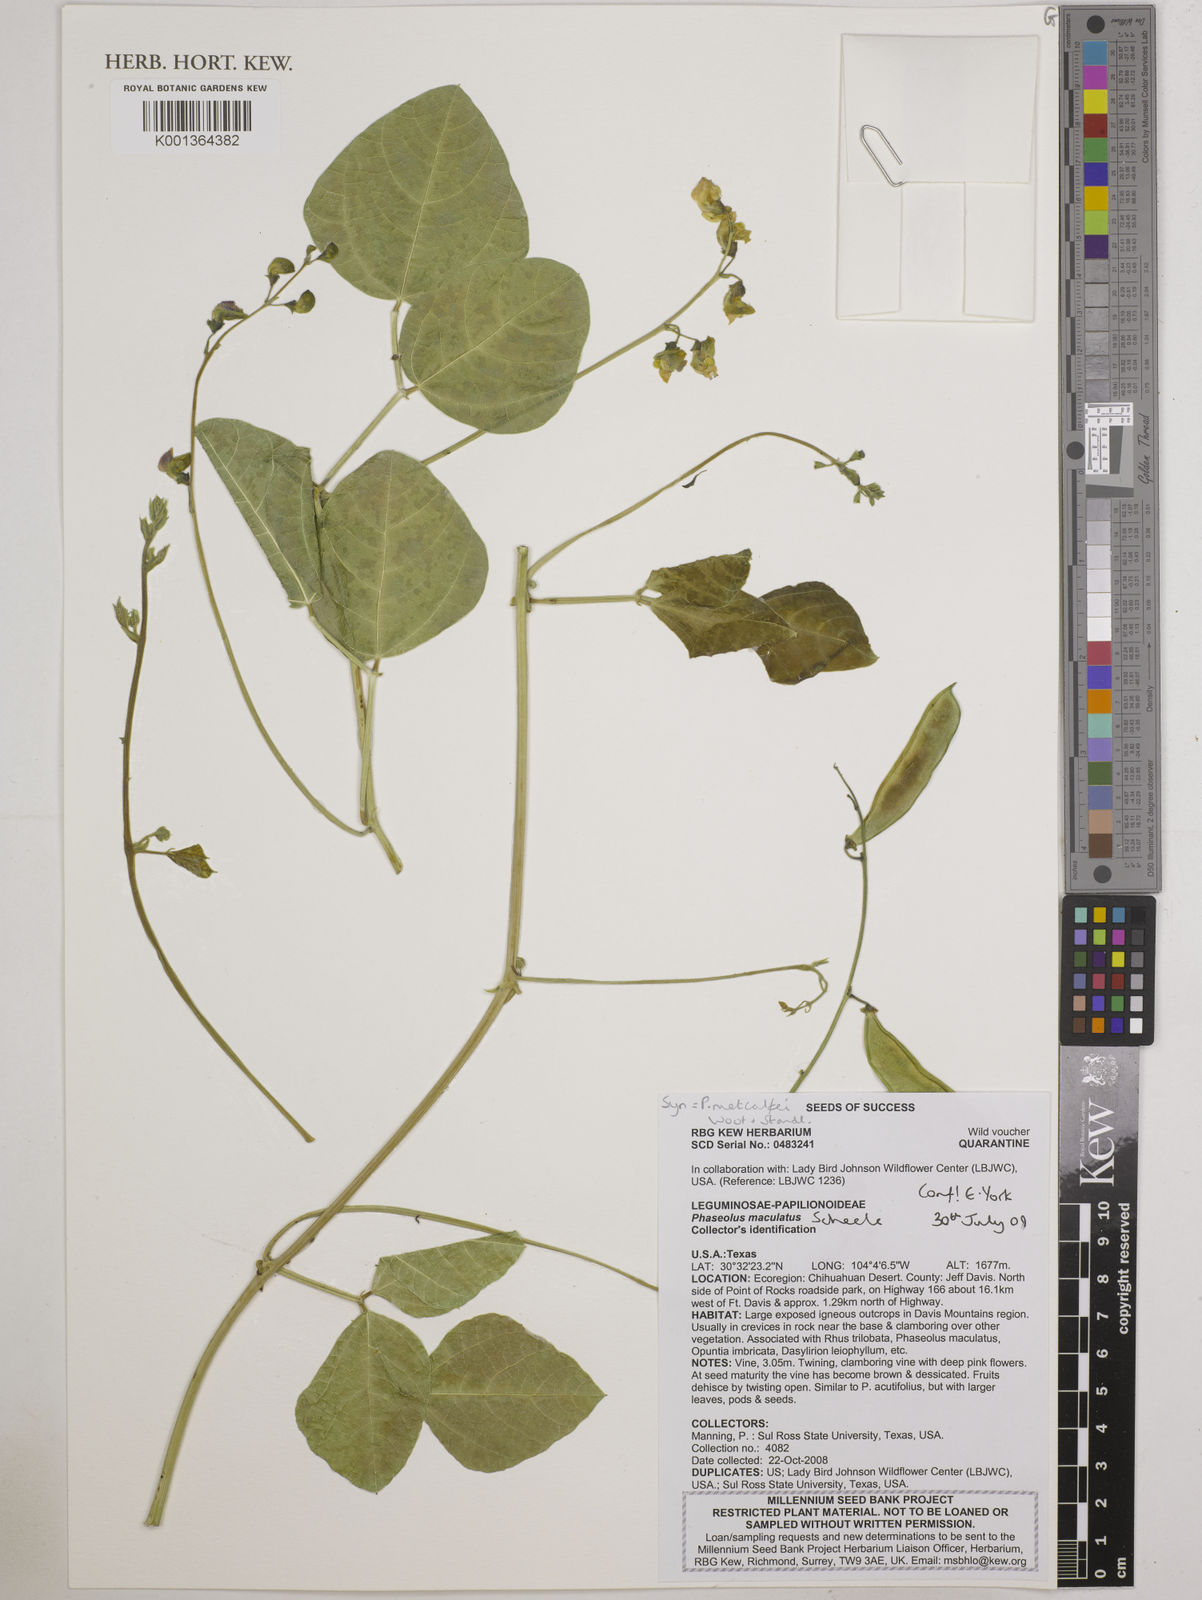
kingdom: Plantae
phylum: Tracheophyta
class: Magnoliopsida
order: Fabales
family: Fabaceae
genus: Phaseolus
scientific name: Phaseolus maculatus
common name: Metcalfe bean
